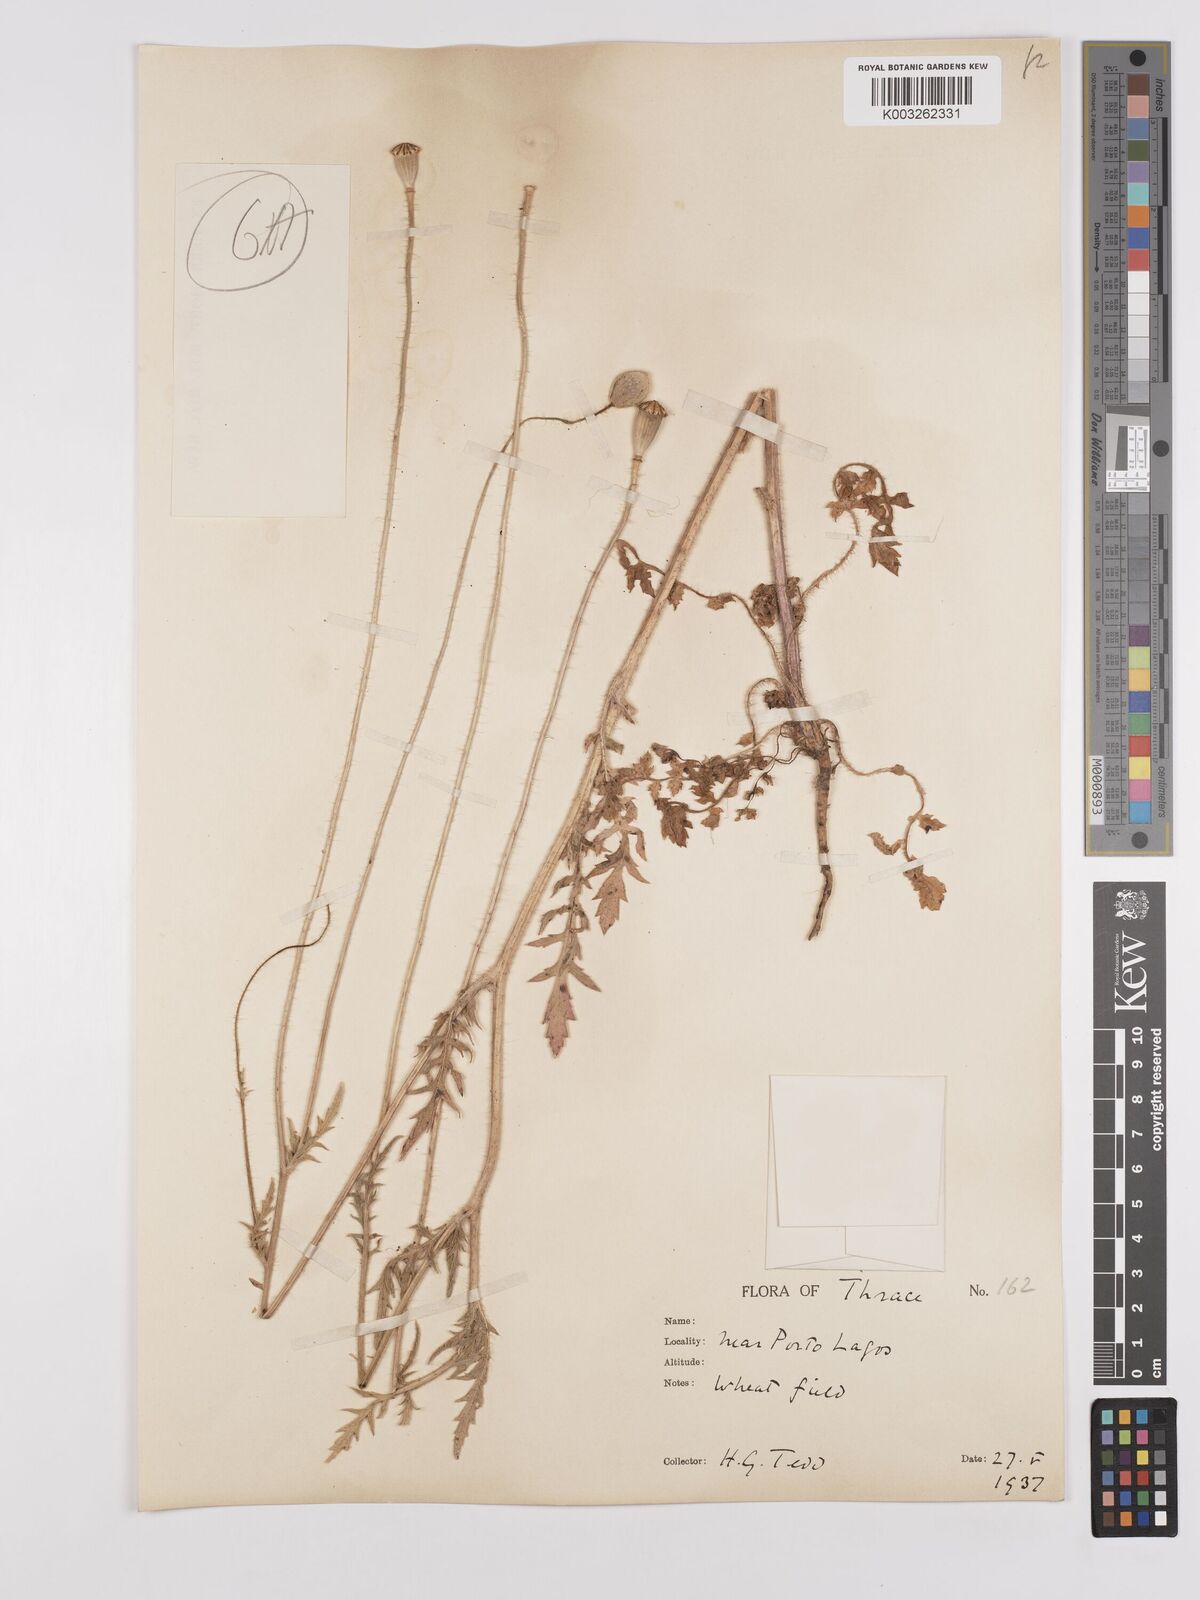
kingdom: Plantae
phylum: Tracheophyta
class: Magnoliopsida
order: Ranunculales
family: Papaveraceae
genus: Papaver
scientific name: Papaver rhoeas
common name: Corn poppy
